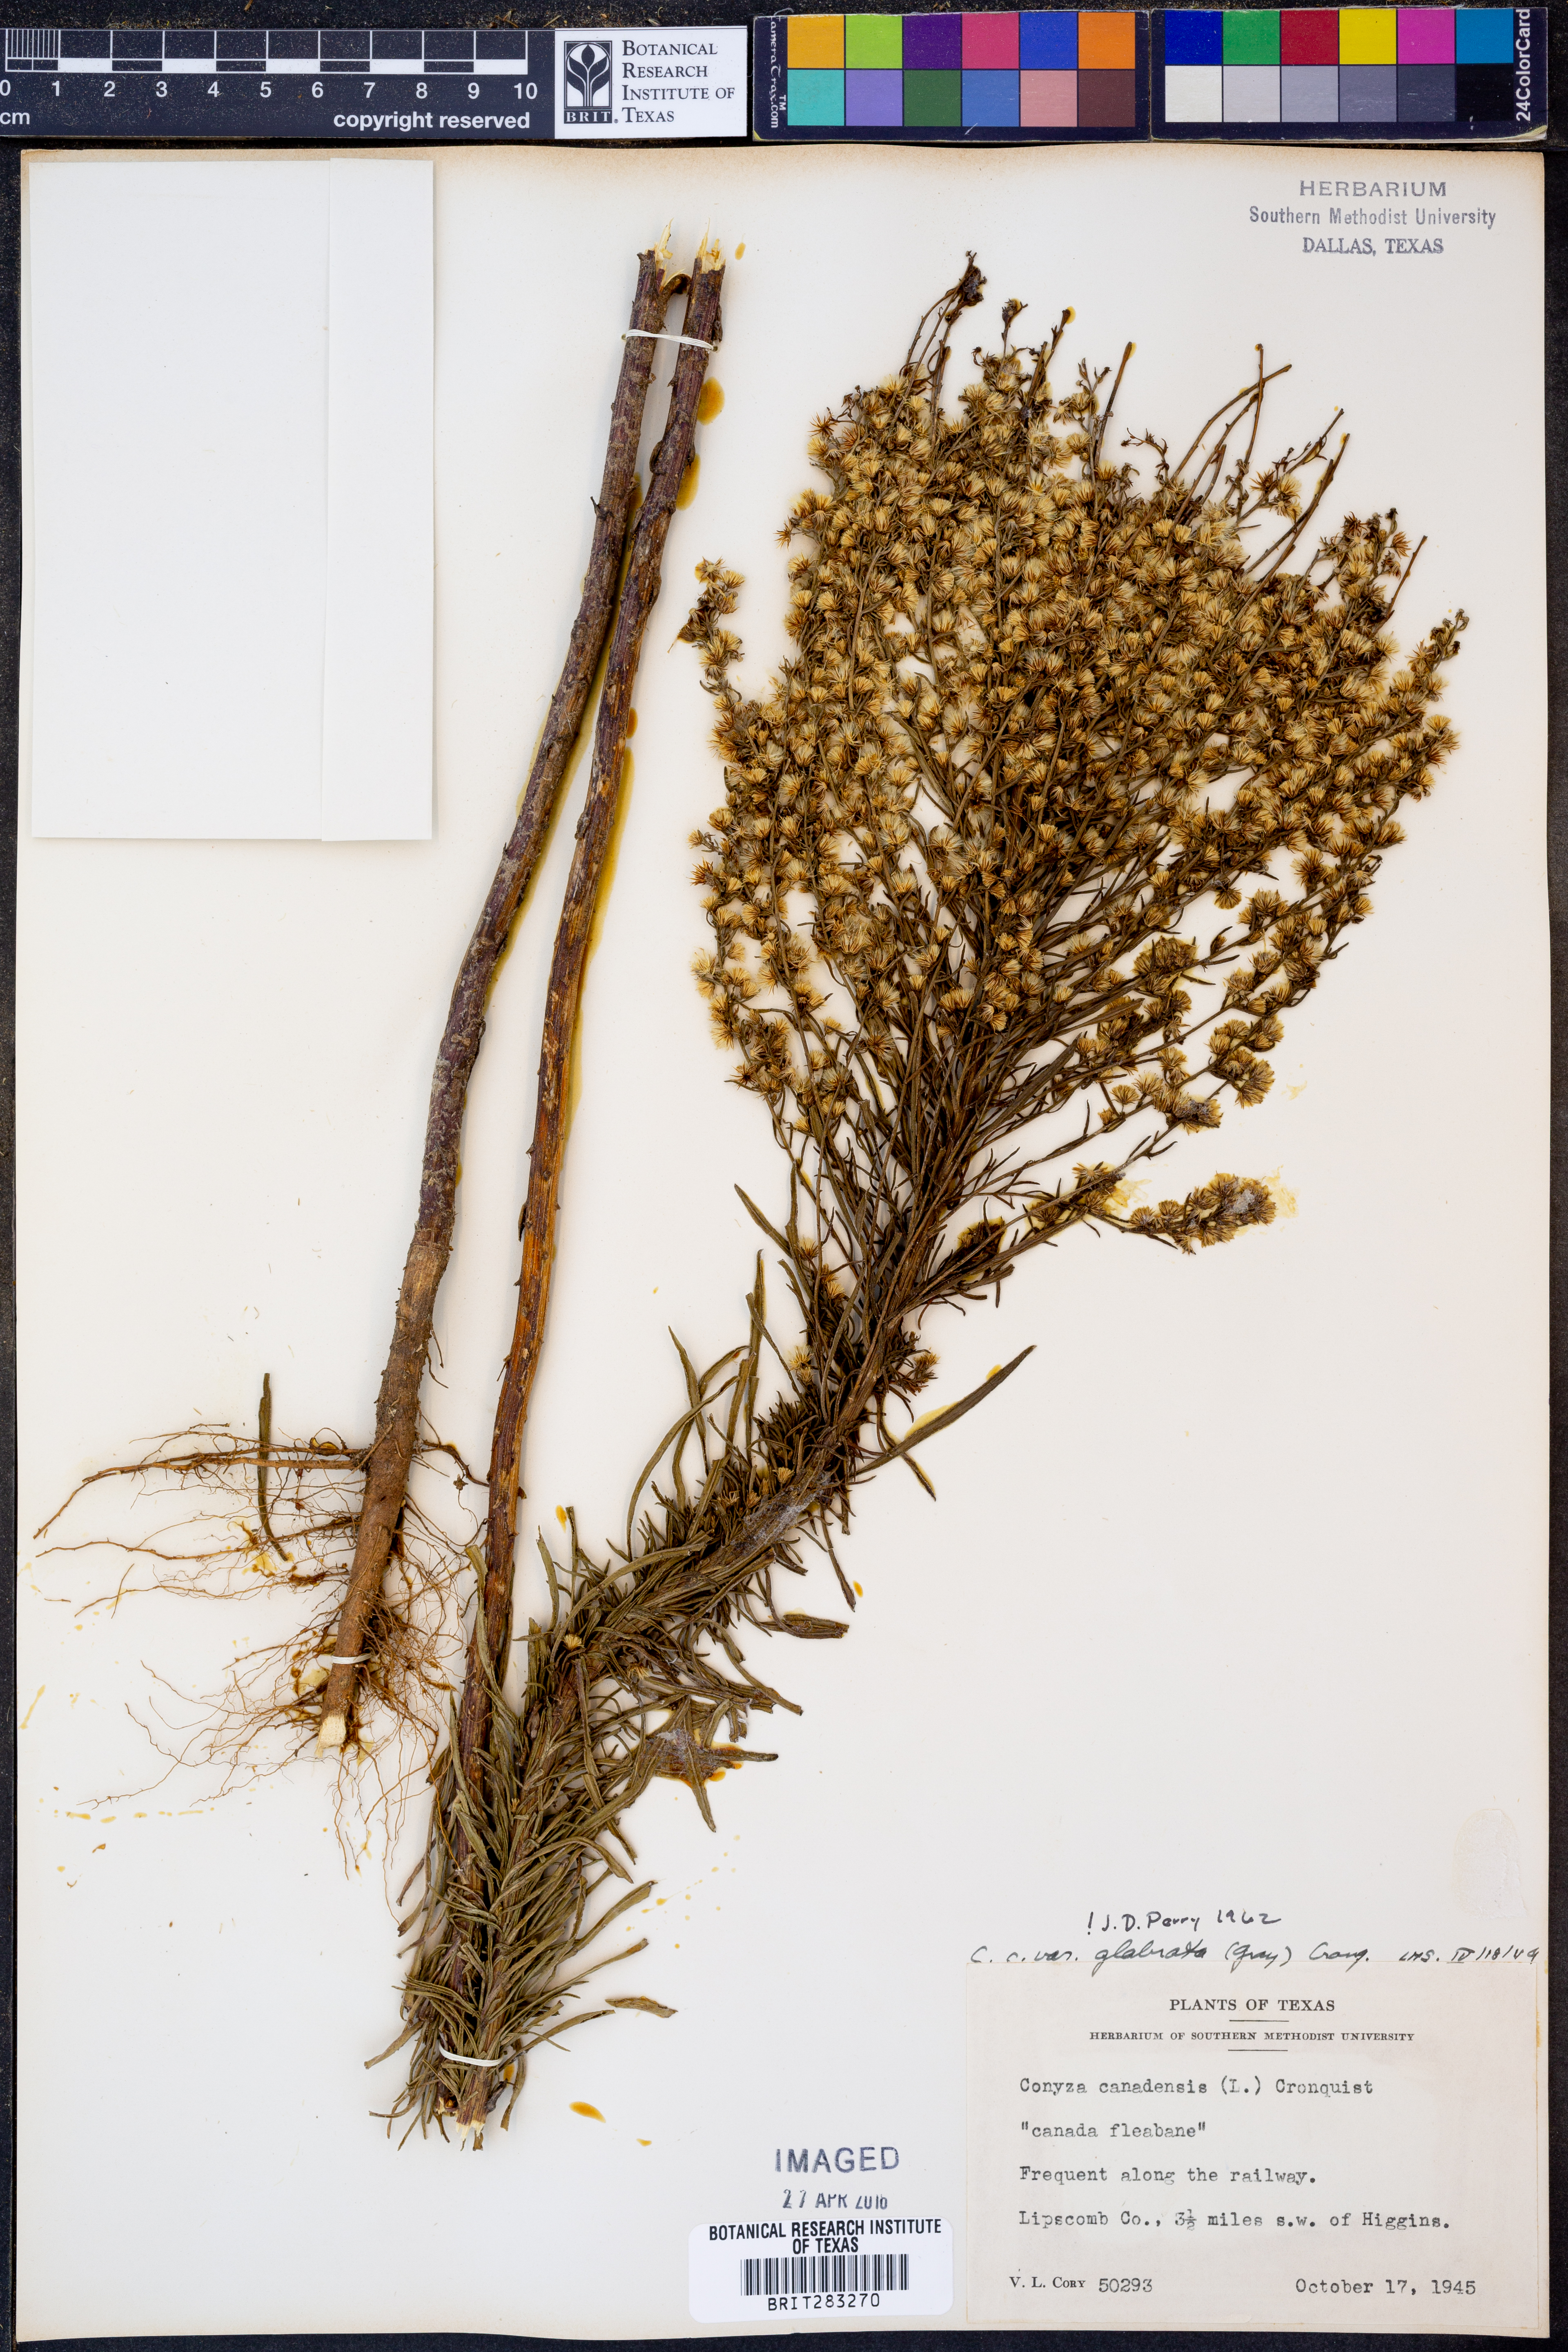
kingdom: Plantae
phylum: Tracheophyta
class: Magnoliopsida
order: Asterales
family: Asteraceae
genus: Erigeron
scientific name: Erigeron canadensis
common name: Canadian fleabane
